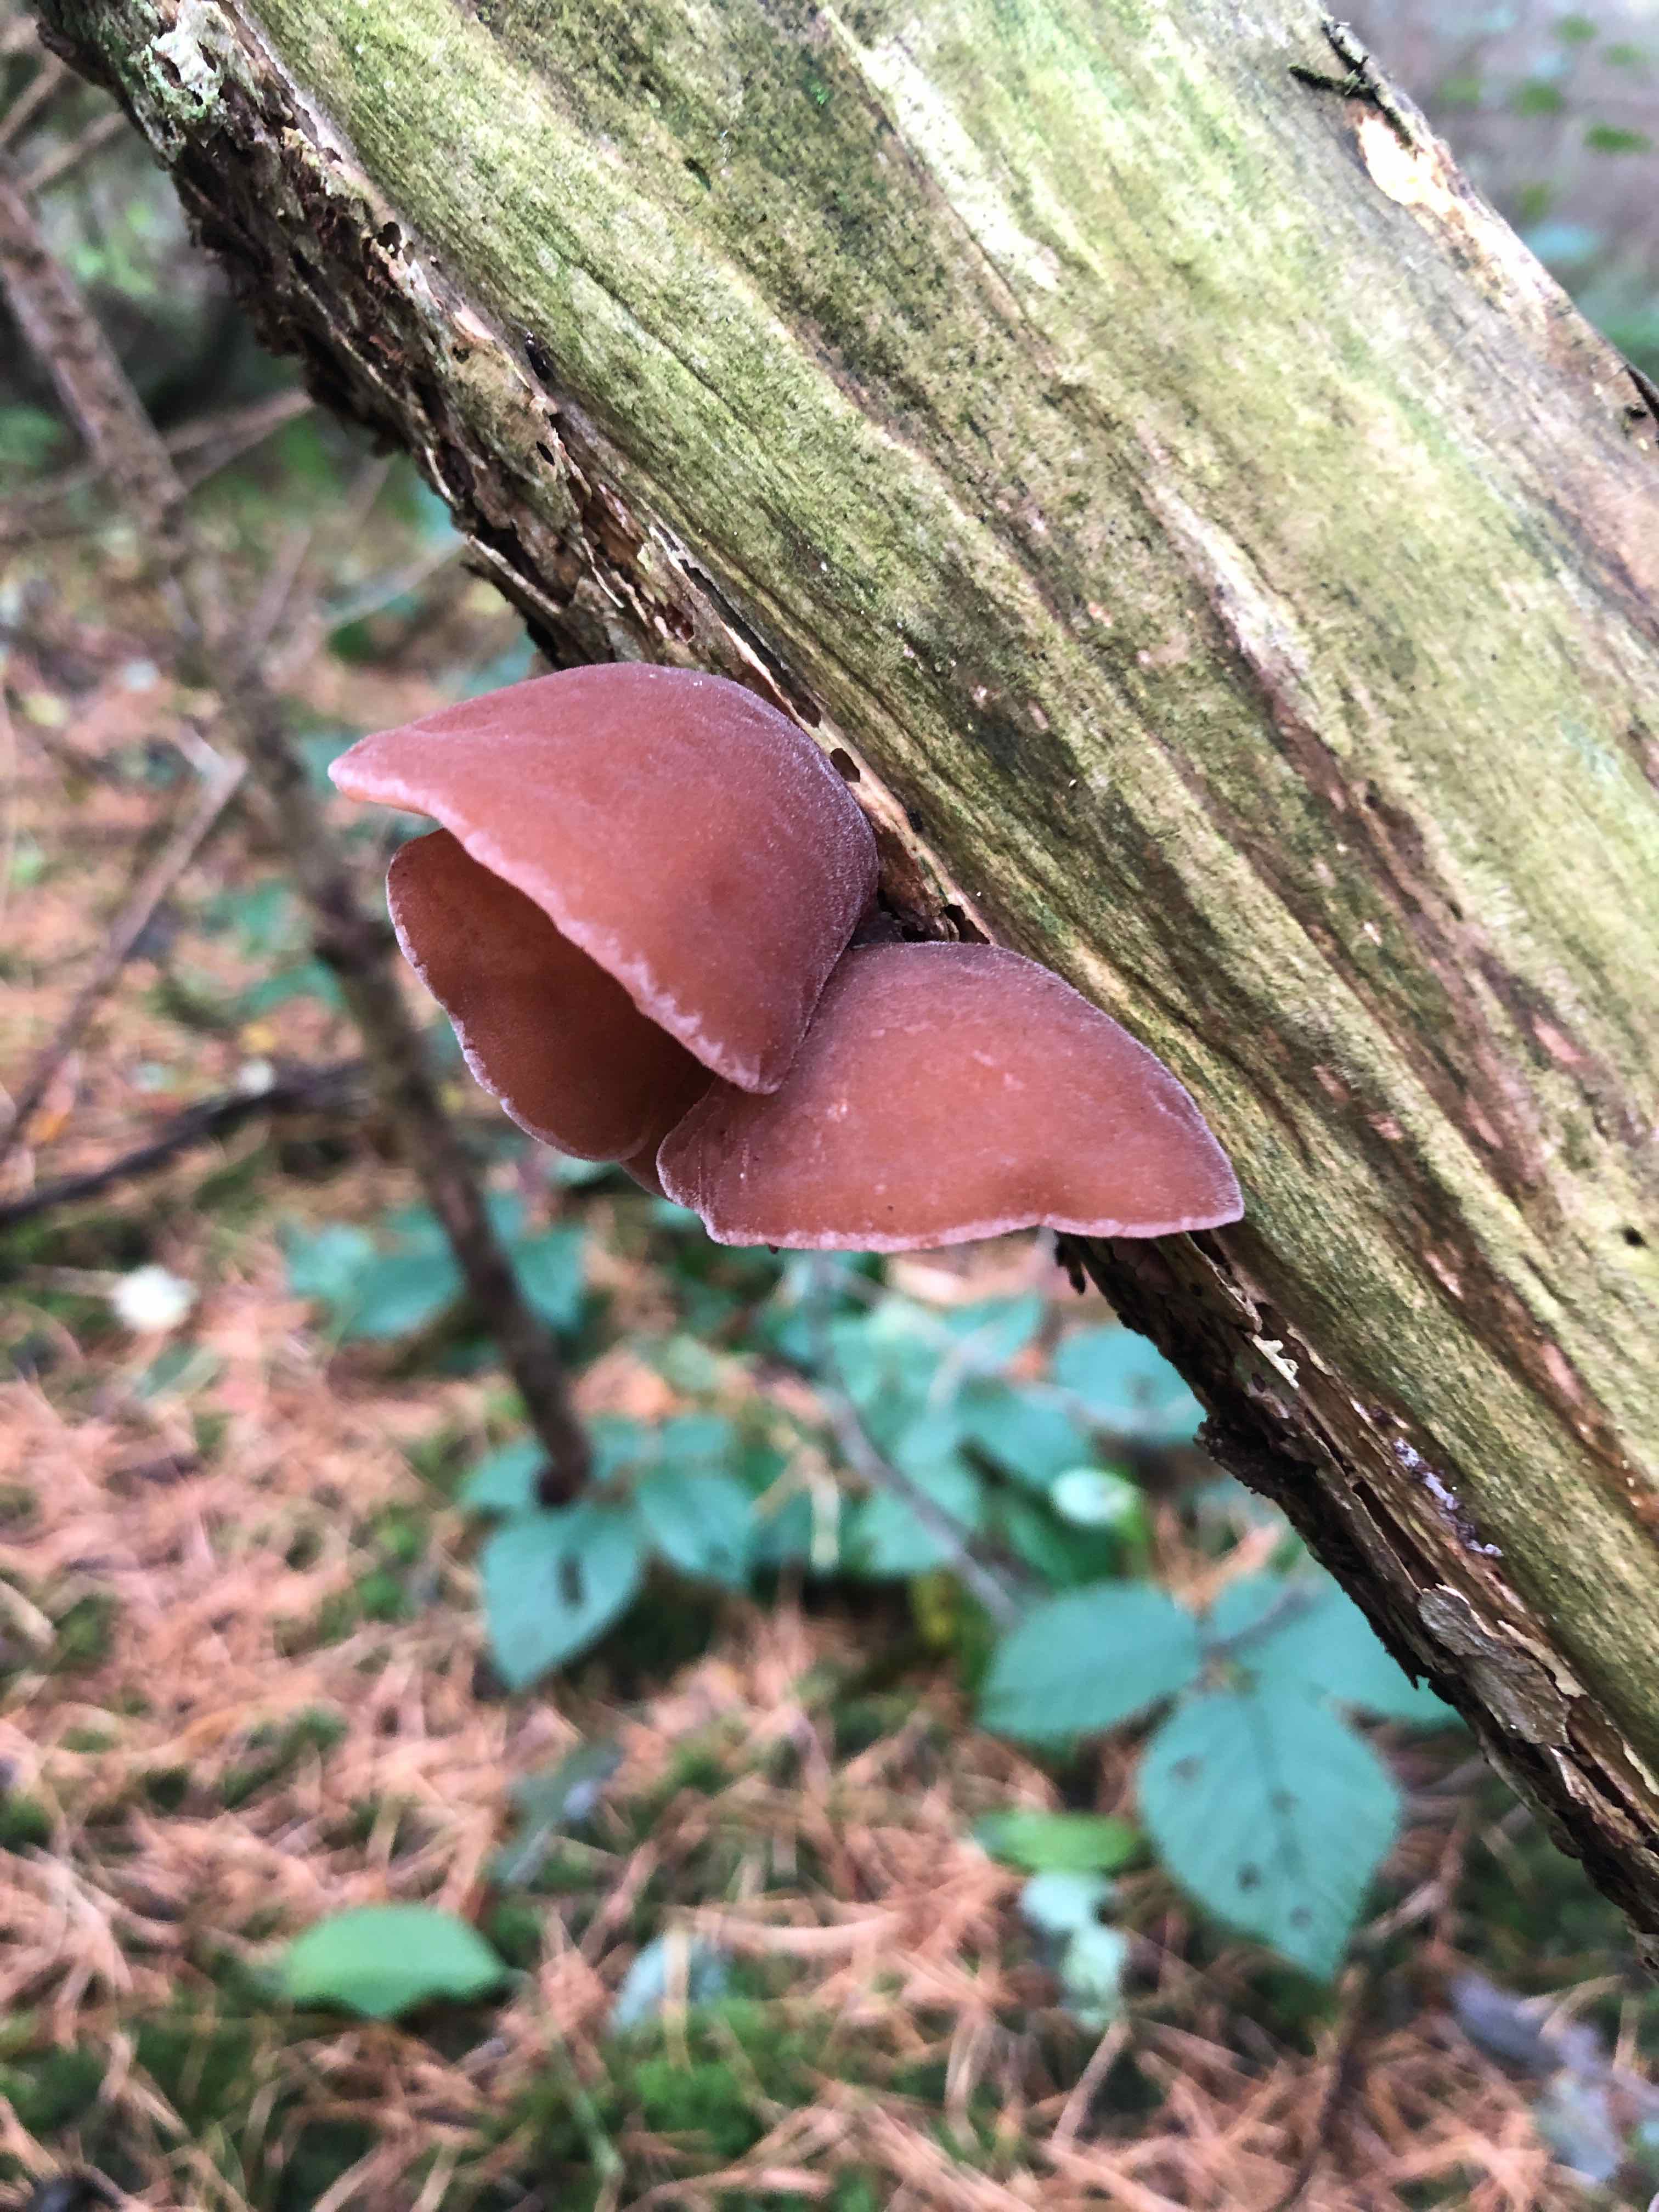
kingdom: Fungi
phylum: Basidiomycota
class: Agaricomycetes
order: Auriculariales
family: Auriculariaceae
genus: Auricularia
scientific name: Auricularia auricula-judae
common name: almindelig judasøre
